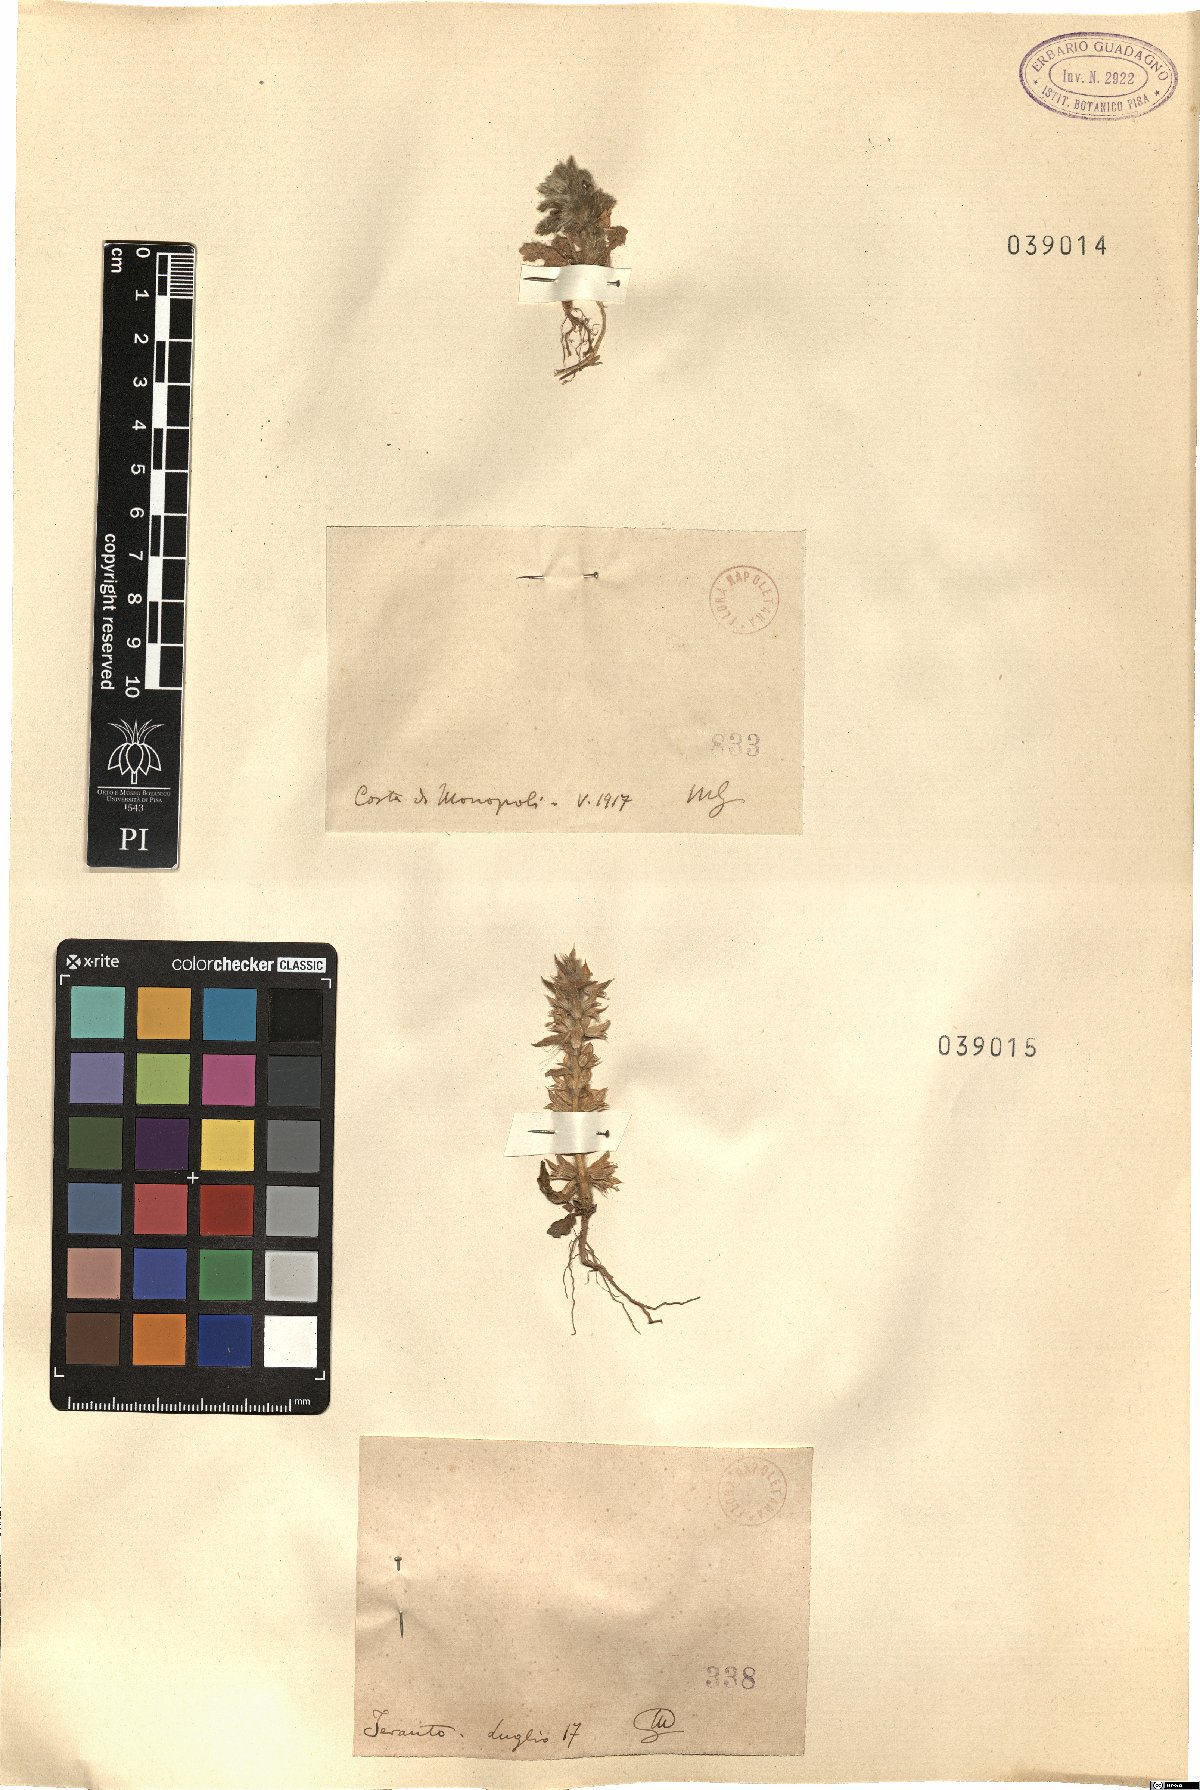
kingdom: Plantae
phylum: Tracheophyta
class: Magnoliopsida
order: Lamiales
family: Lamiaceae
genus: Sideritis
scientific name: Sideritis
